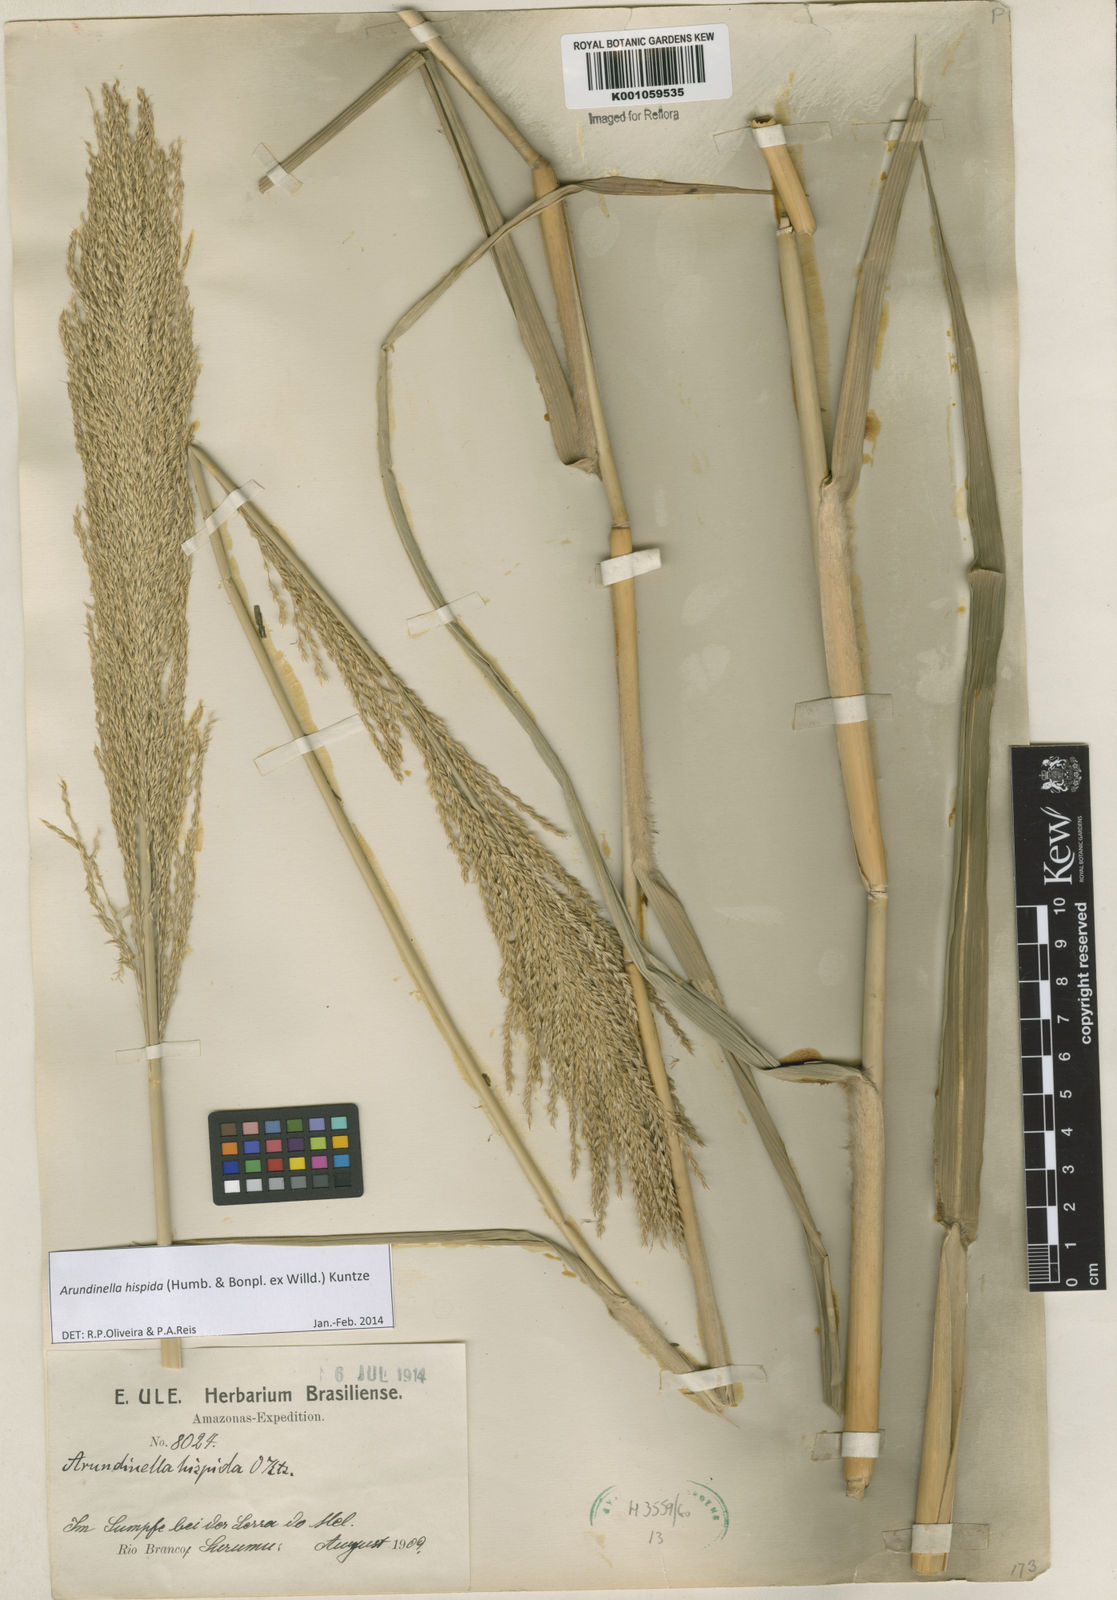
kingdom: Plantae
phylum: Tracheophyta
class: Liliopsida
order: Poales
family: Poaceae
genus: Arundinella
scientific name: Arundinella hispida
